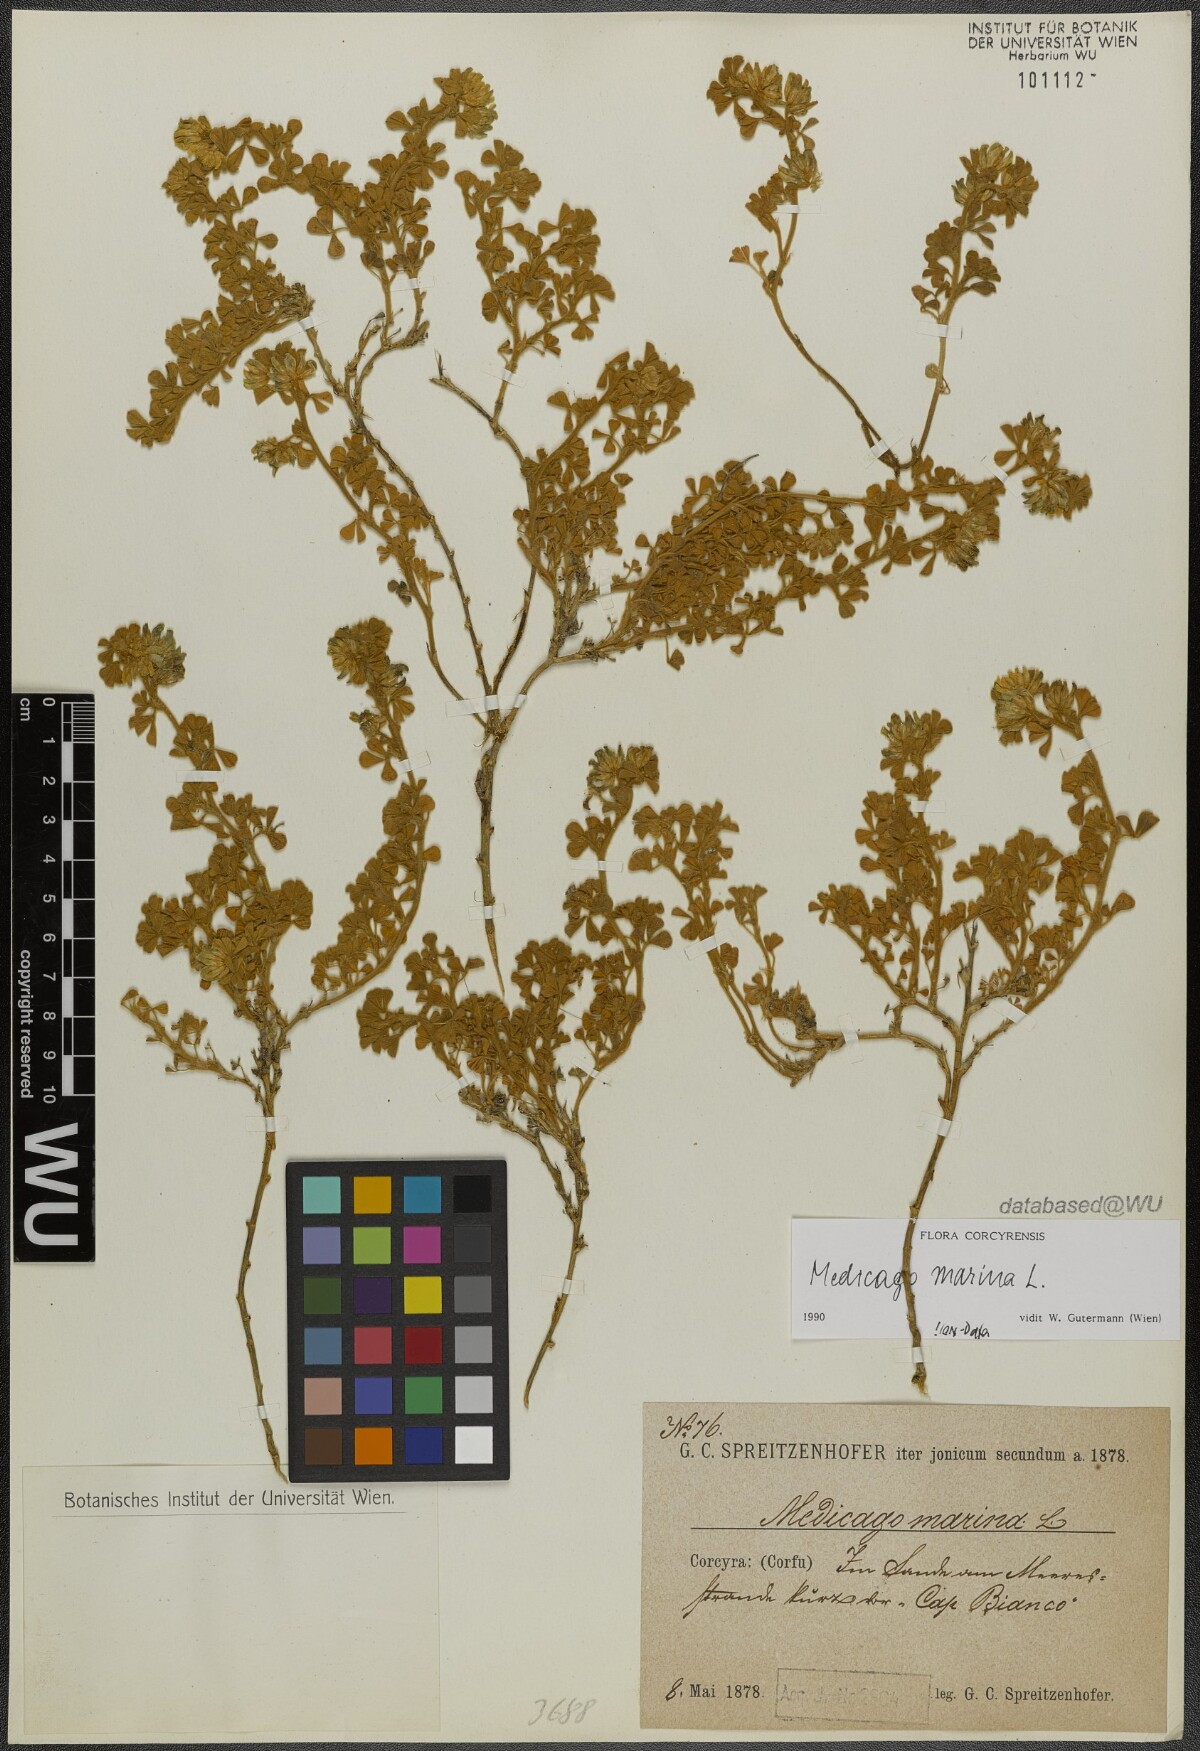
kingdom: Plantae
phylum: Tracheophyta
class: Magnoliopsida
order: Fabales
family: Fabaceae
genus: Medicago
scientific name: Medicago marina
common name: Sea medick
